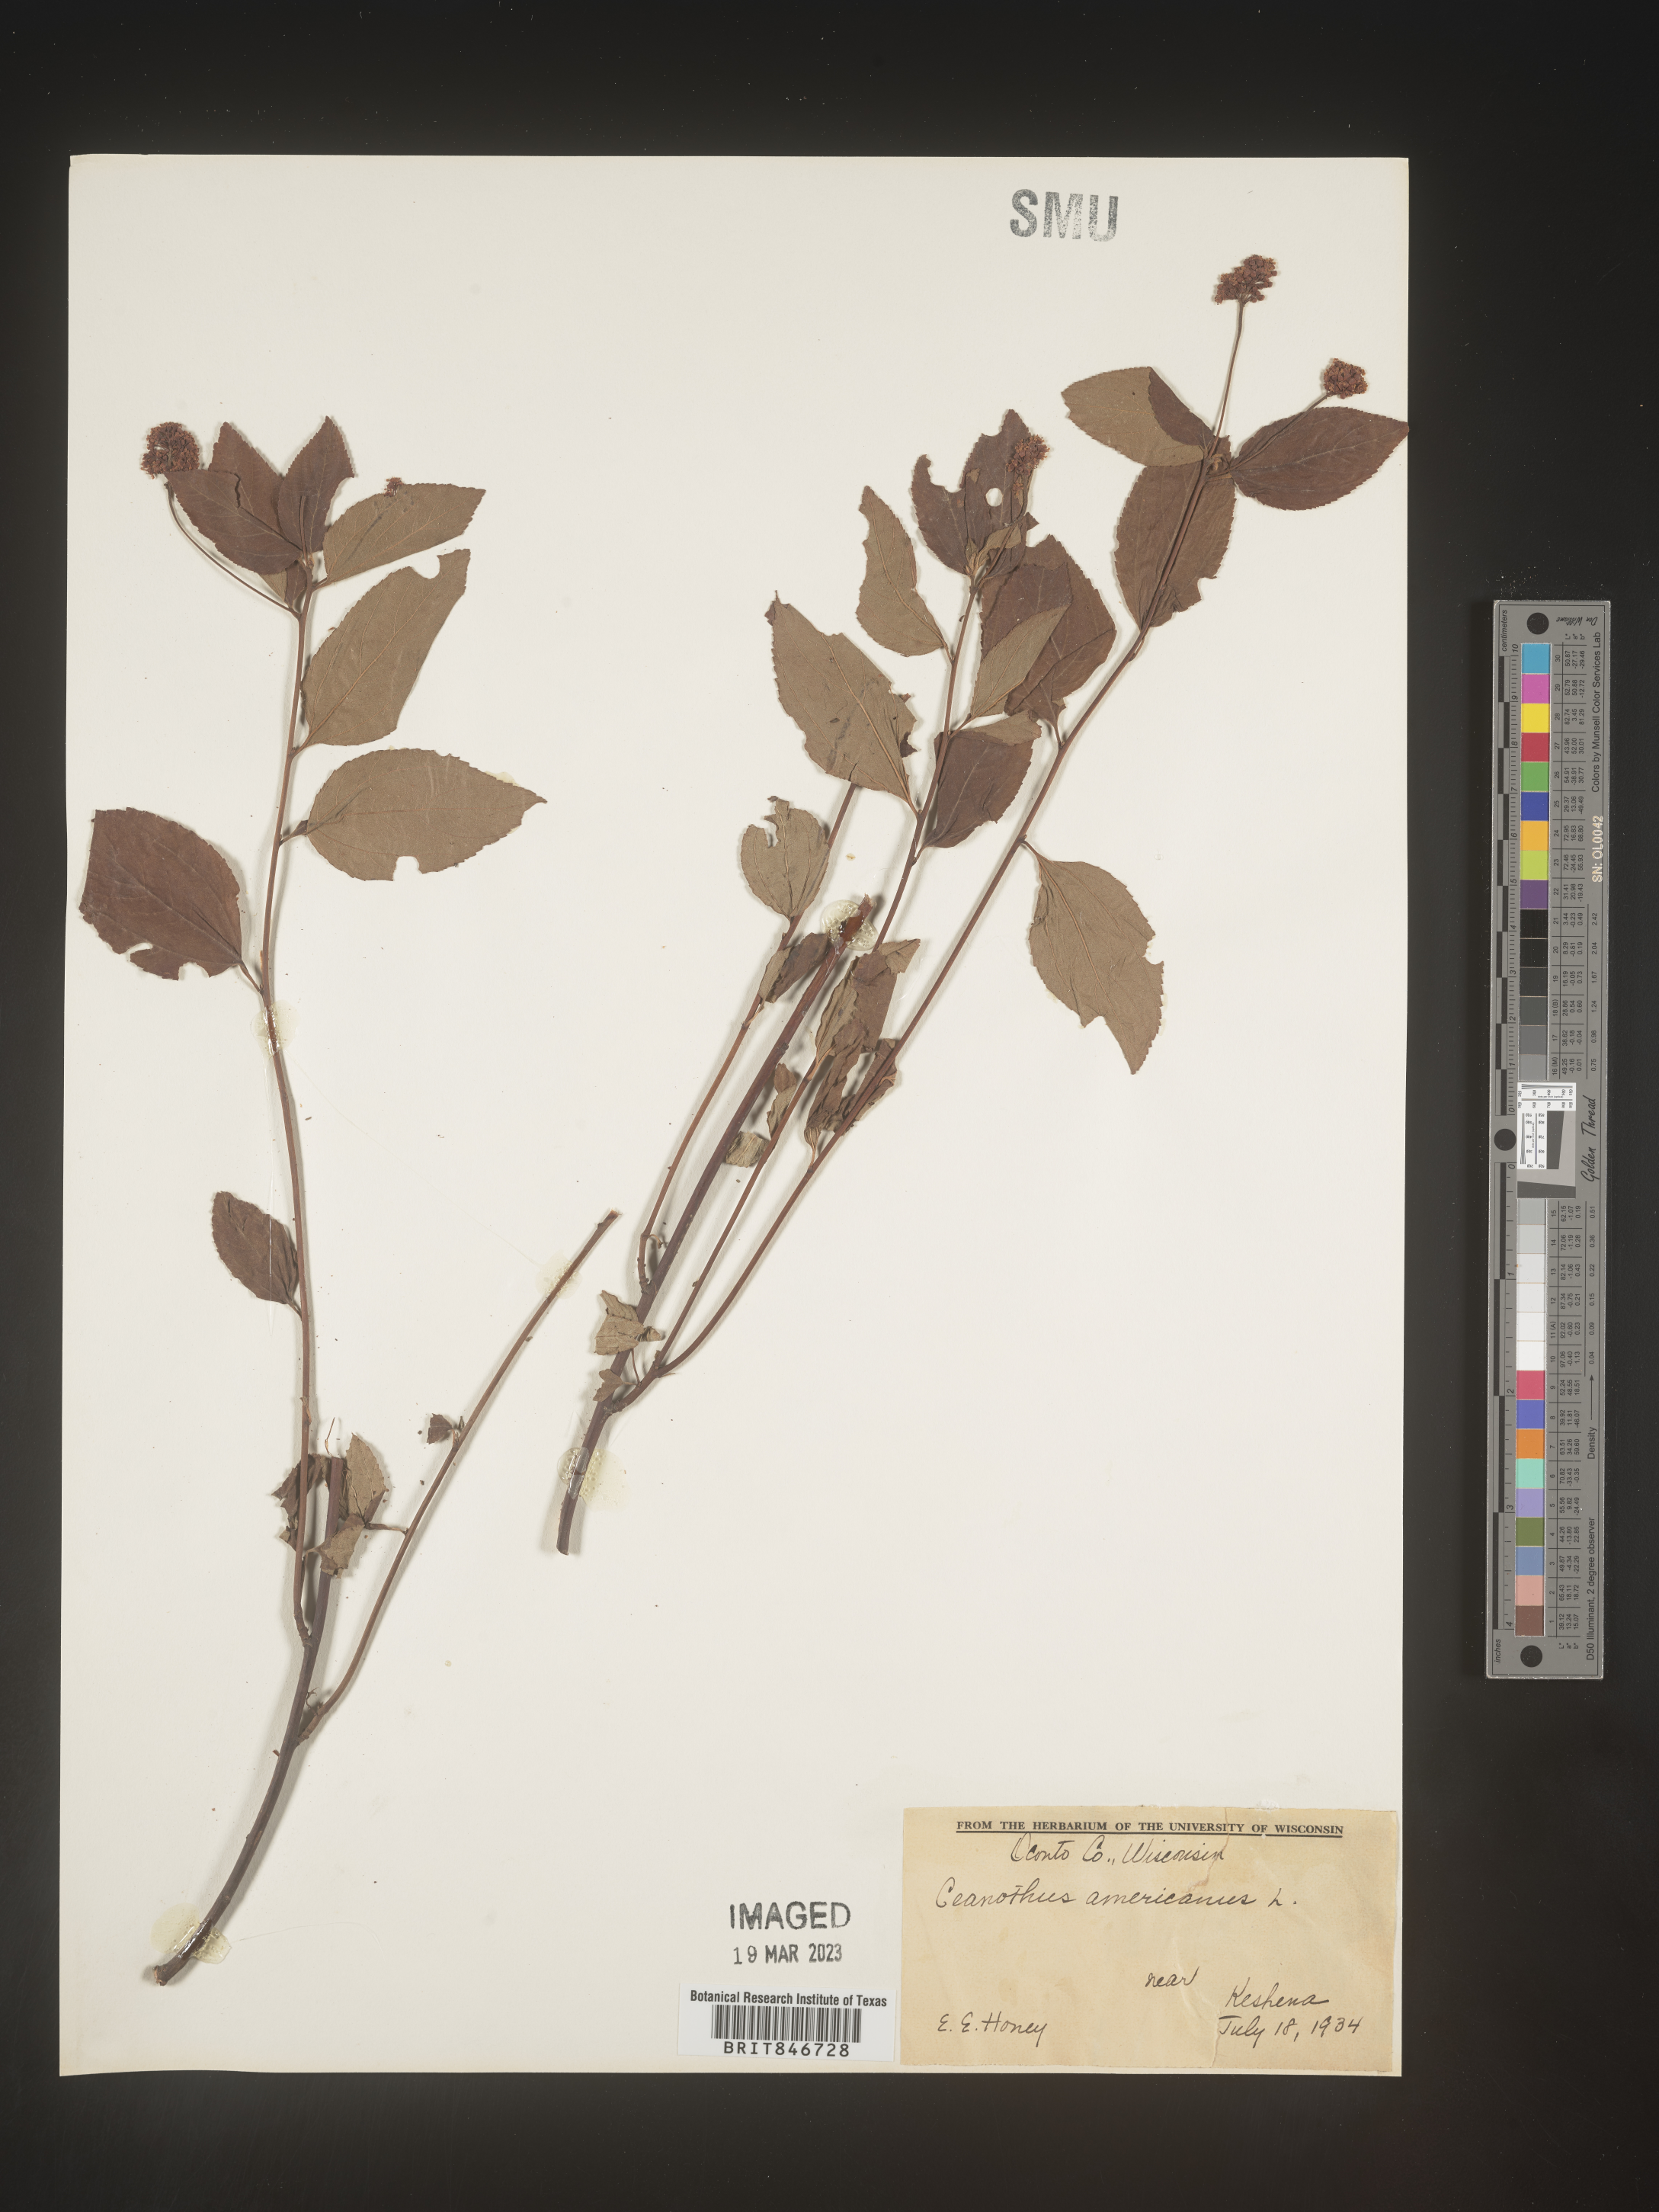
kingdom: Plantae
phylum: Tracheophyta
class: Magnoliopsida
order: Rosales
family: Rhamnaceae
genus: Ceanothus
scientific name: Ceanothus americanus
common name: Redroot
